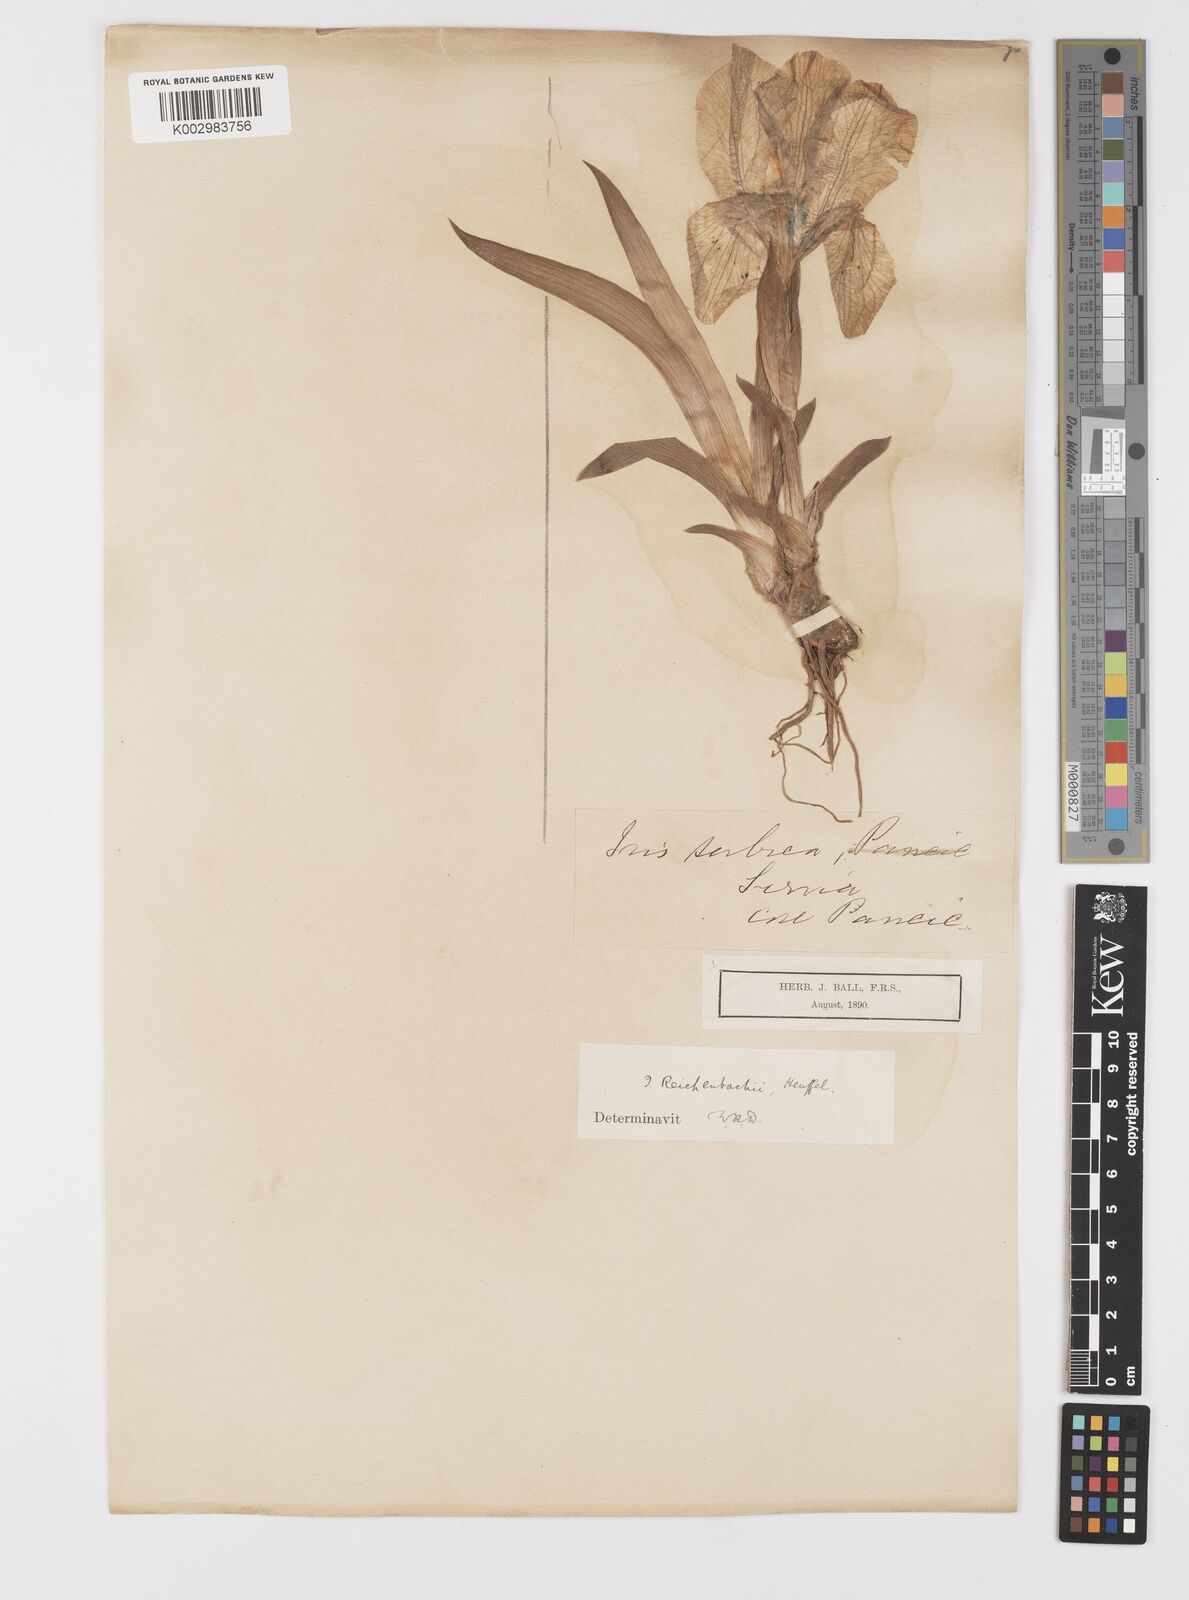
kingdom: Plantae
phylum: Tracheophyta
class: Liliopsida
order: Asparagales
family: Iridaceae
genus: Iris
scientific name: Iris reichenbachii
